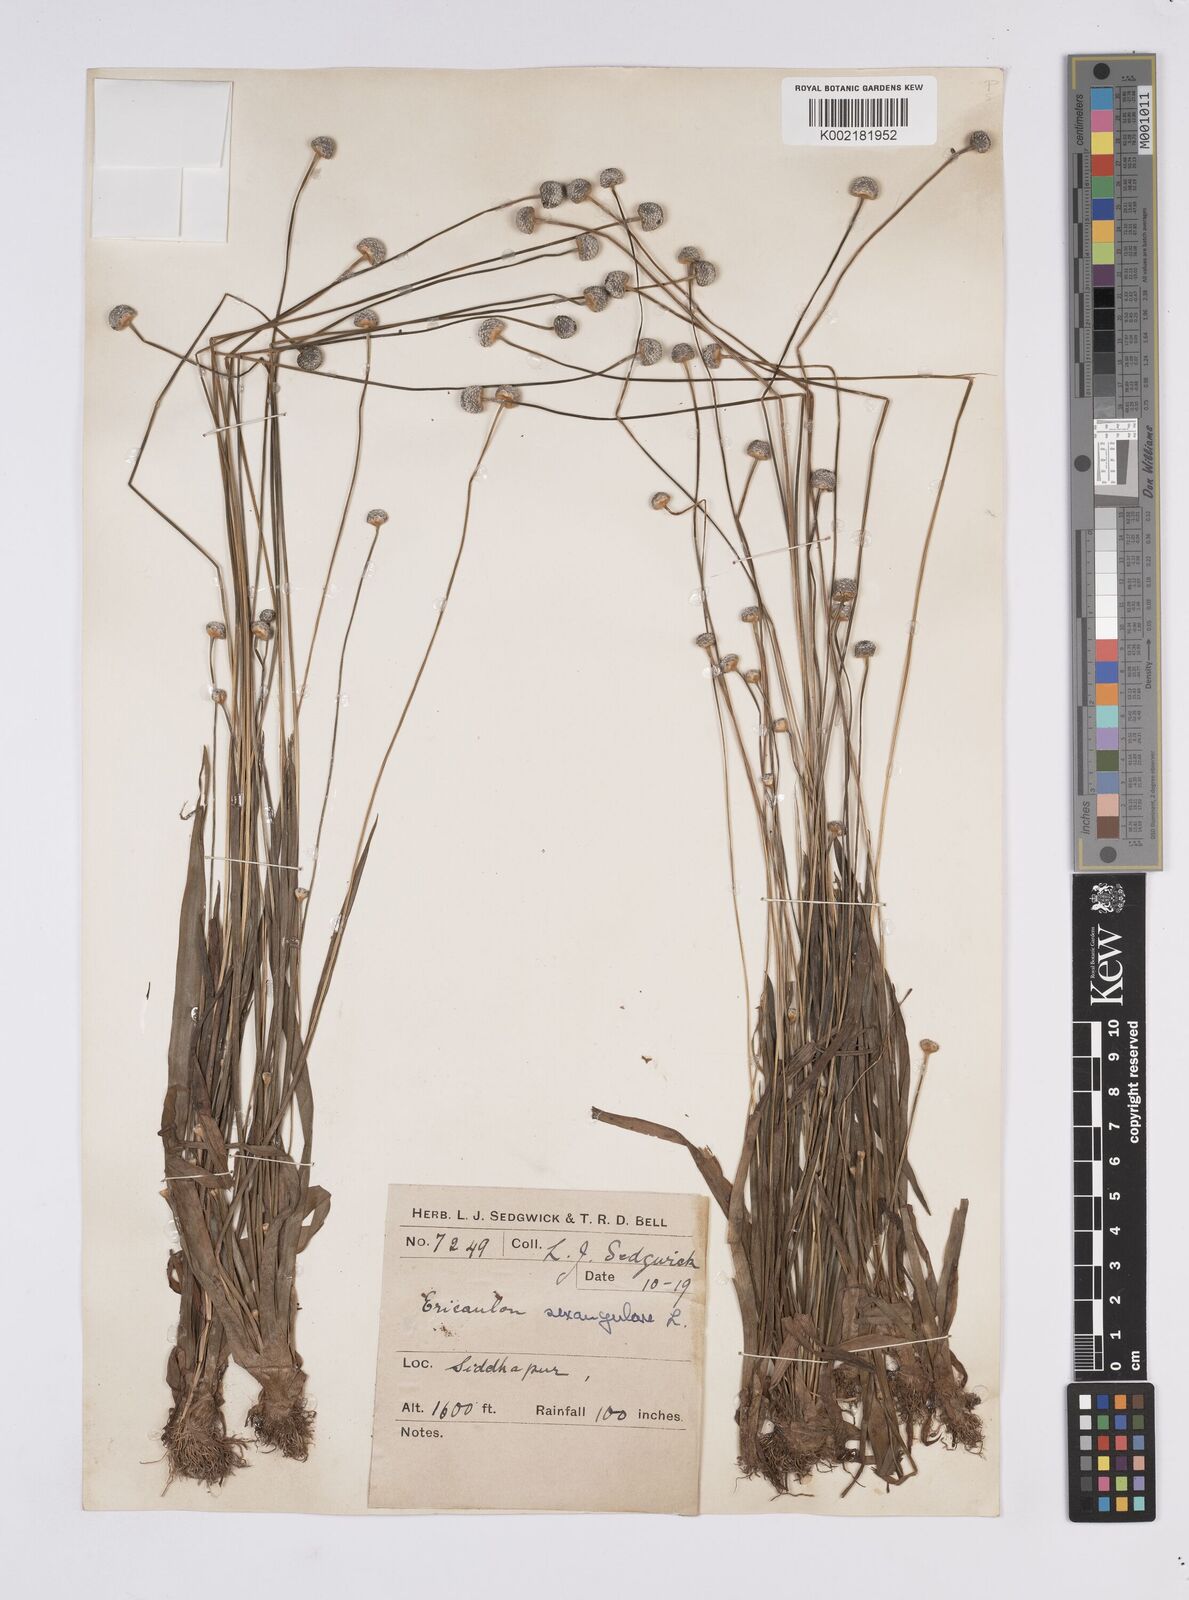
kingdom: Plantae
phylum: Tracheophyta
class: Liliopsida
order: Poales
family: Eriocaulaceae
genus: Eriocaulon
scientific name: Eriocaulon sexangulare
